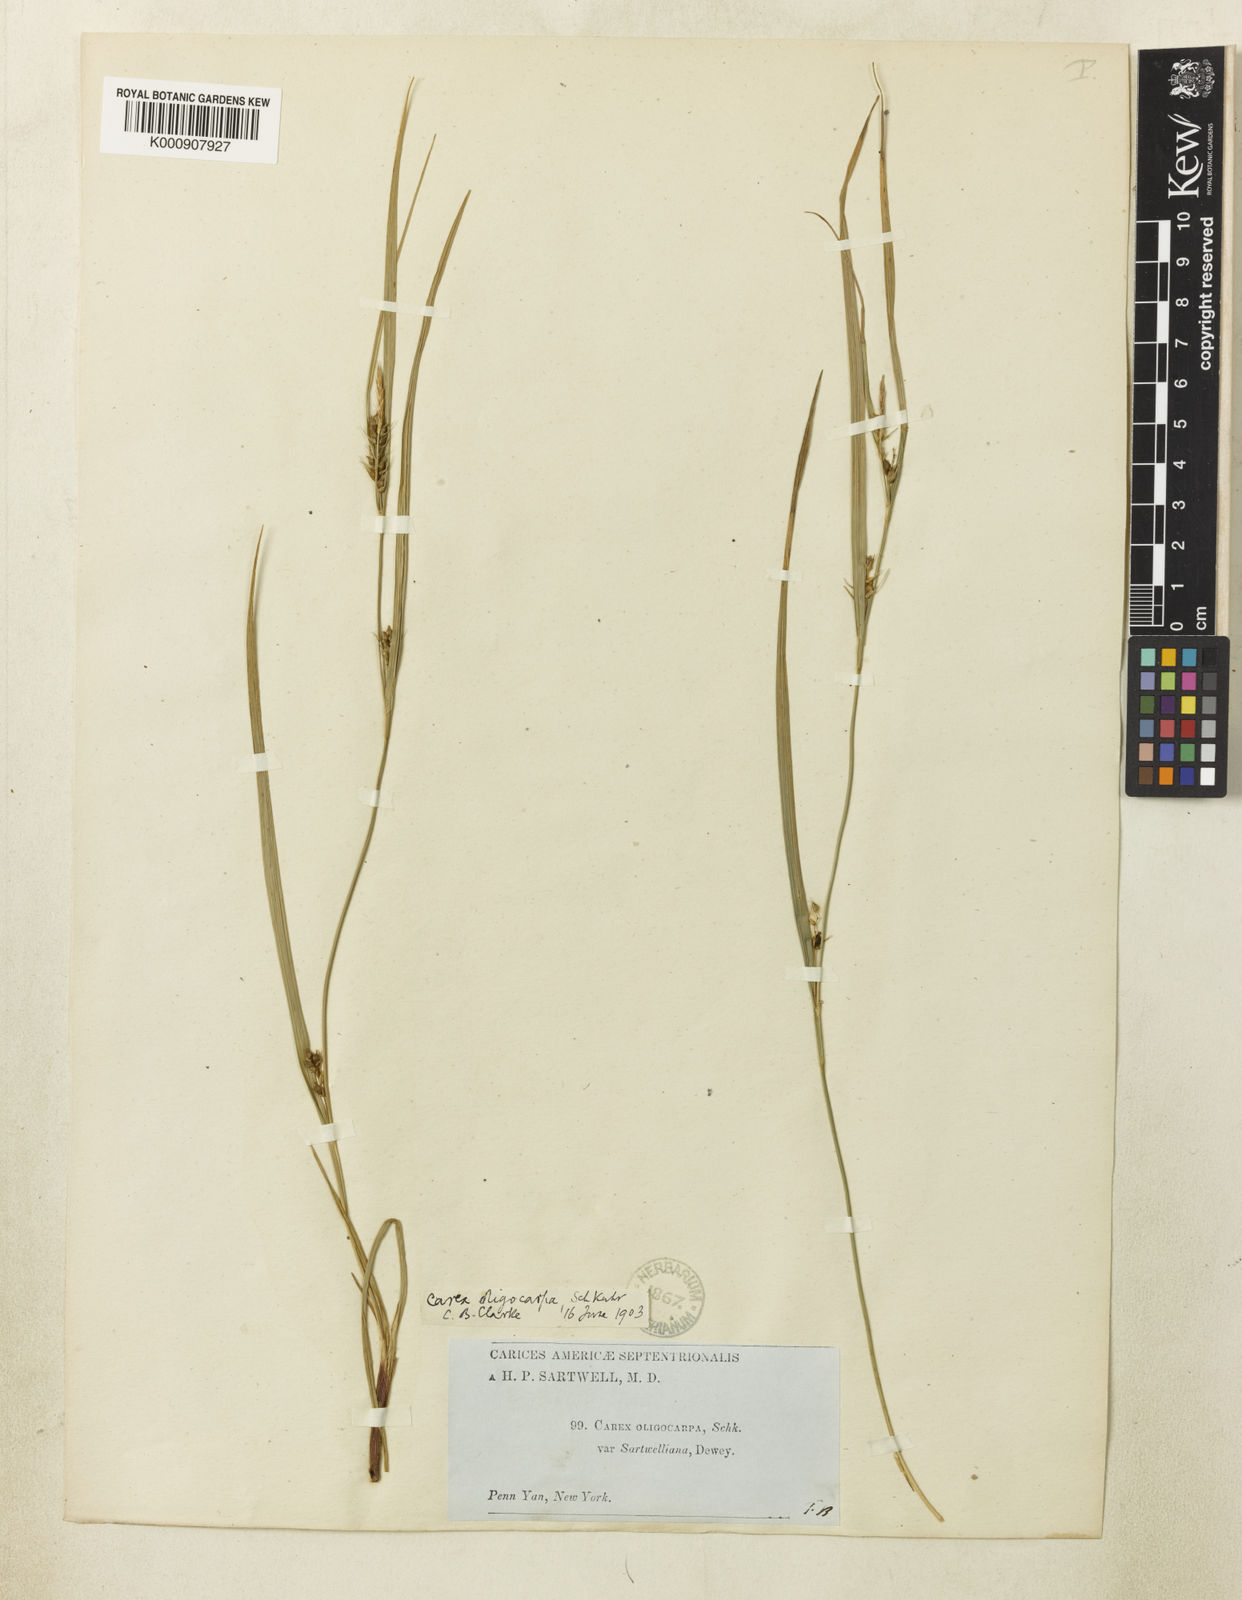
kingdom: Plantae
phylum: Tracheophyta
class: Liliopsida
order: Poales
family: Cyperaceae
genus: Carex
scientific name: Carex
